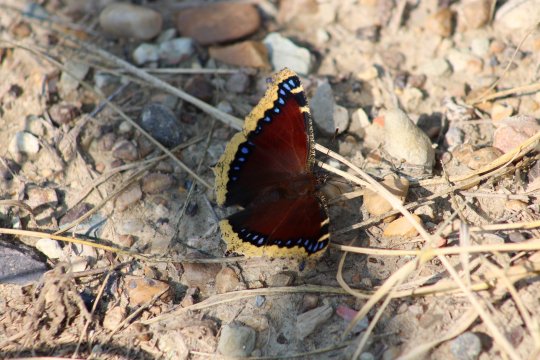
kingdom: Animalia
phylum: Arthropoda
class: Insecta
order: Lepidoptera
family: Nymphalidae
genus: Nymphalis
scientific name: Nymphalis antiopa
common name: Mourning Cloak
